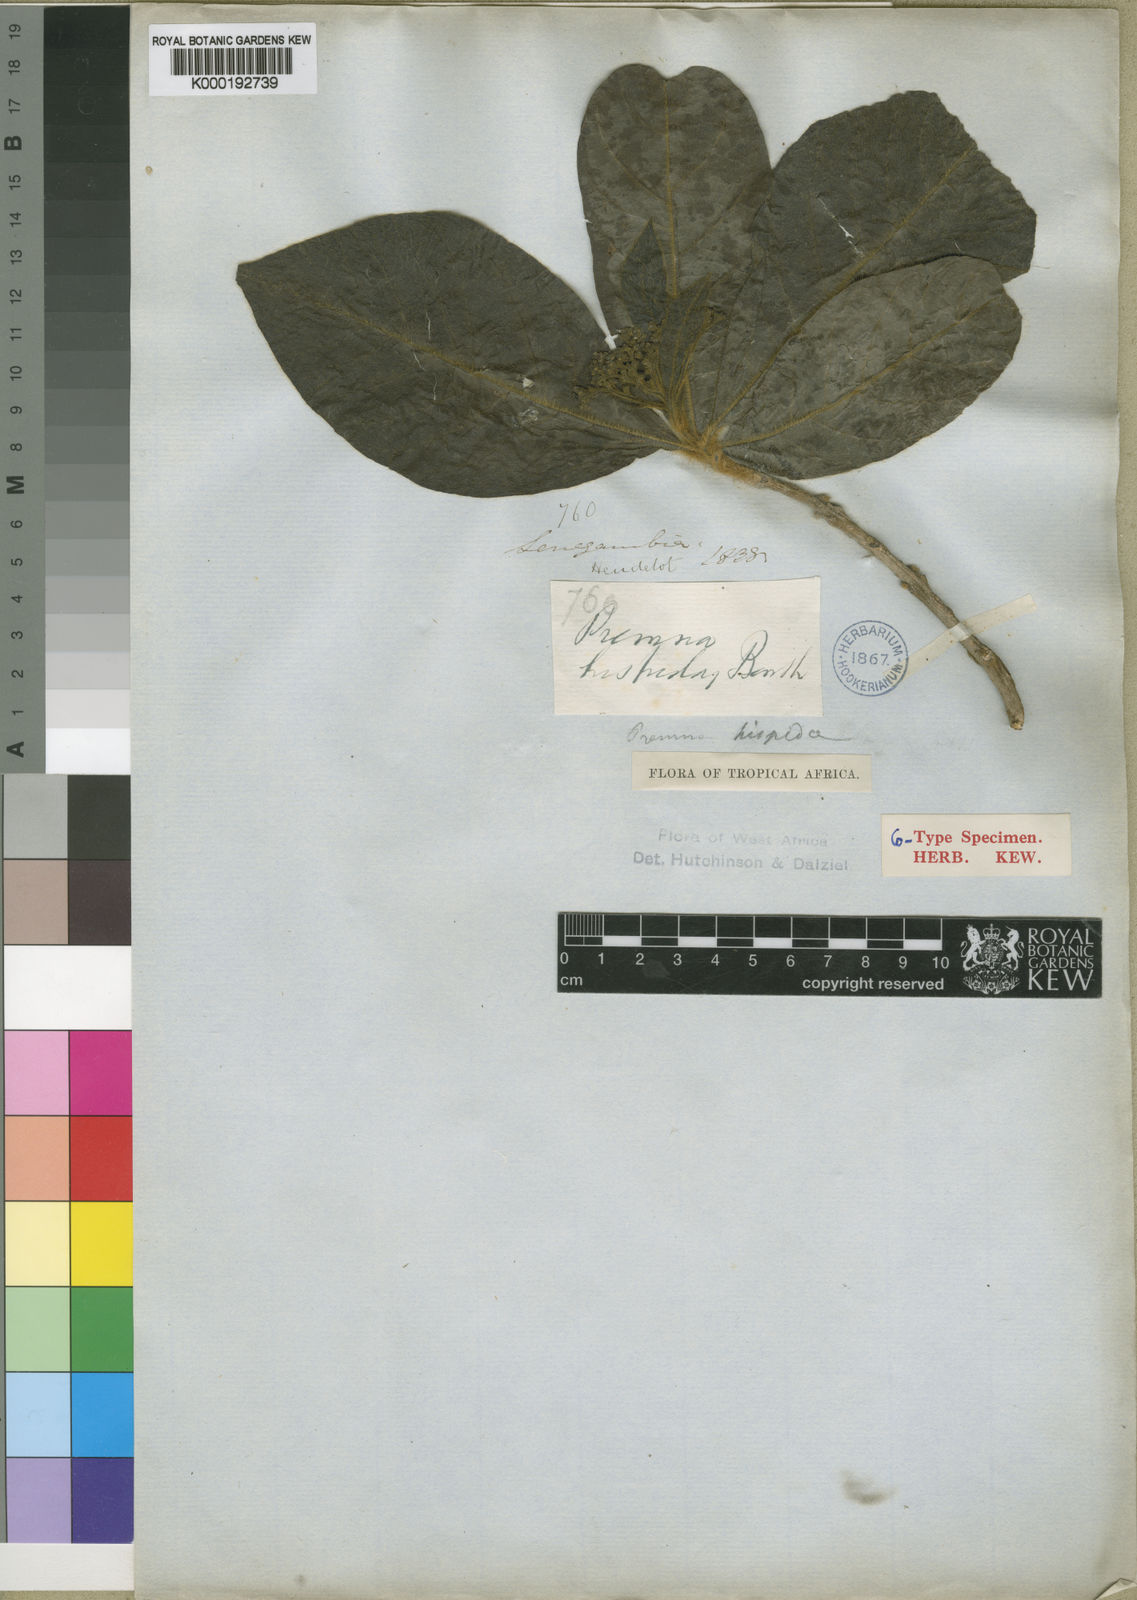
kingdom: Plantae
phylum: Tracheophyta
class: Magnoliopsida
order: Lamiales
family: Lamiaceae
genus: Premna
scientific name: Premna hispida
